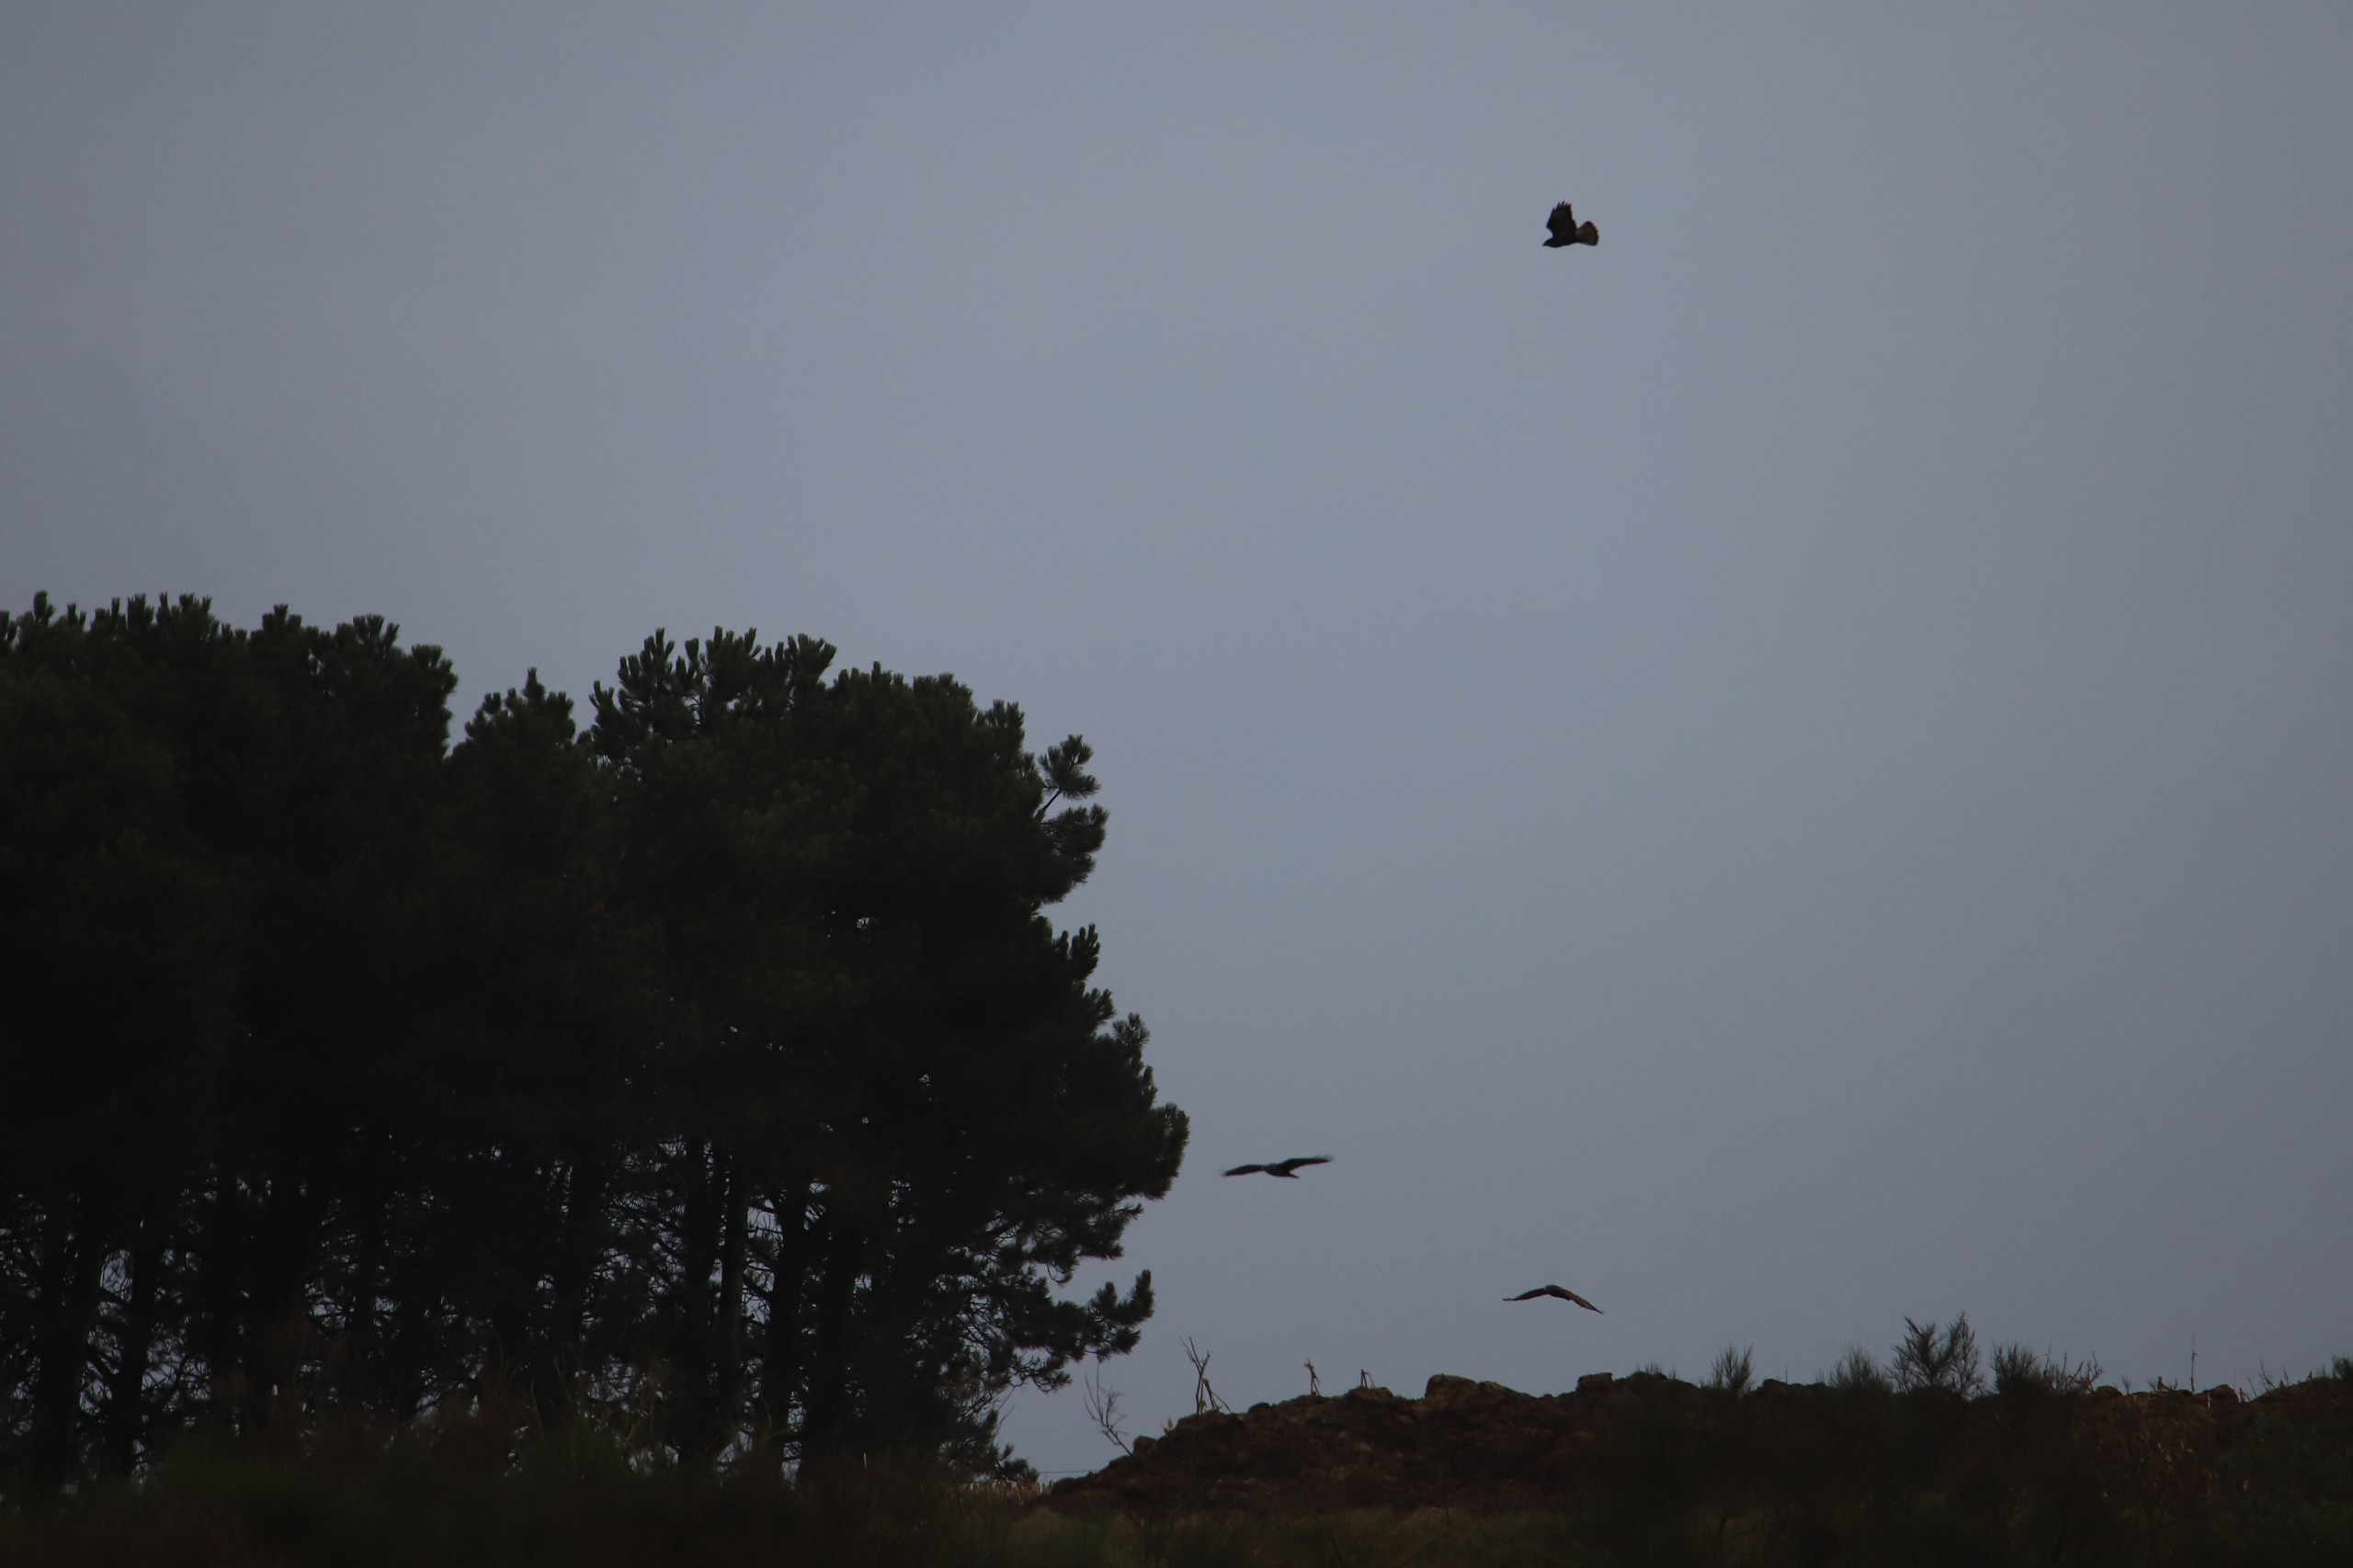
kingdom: Animalia
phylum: Chordata
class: Aves
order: Accipitriformes
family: Accipitridae
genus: Buteo
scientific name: Buteo buteo
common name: Musvåge
